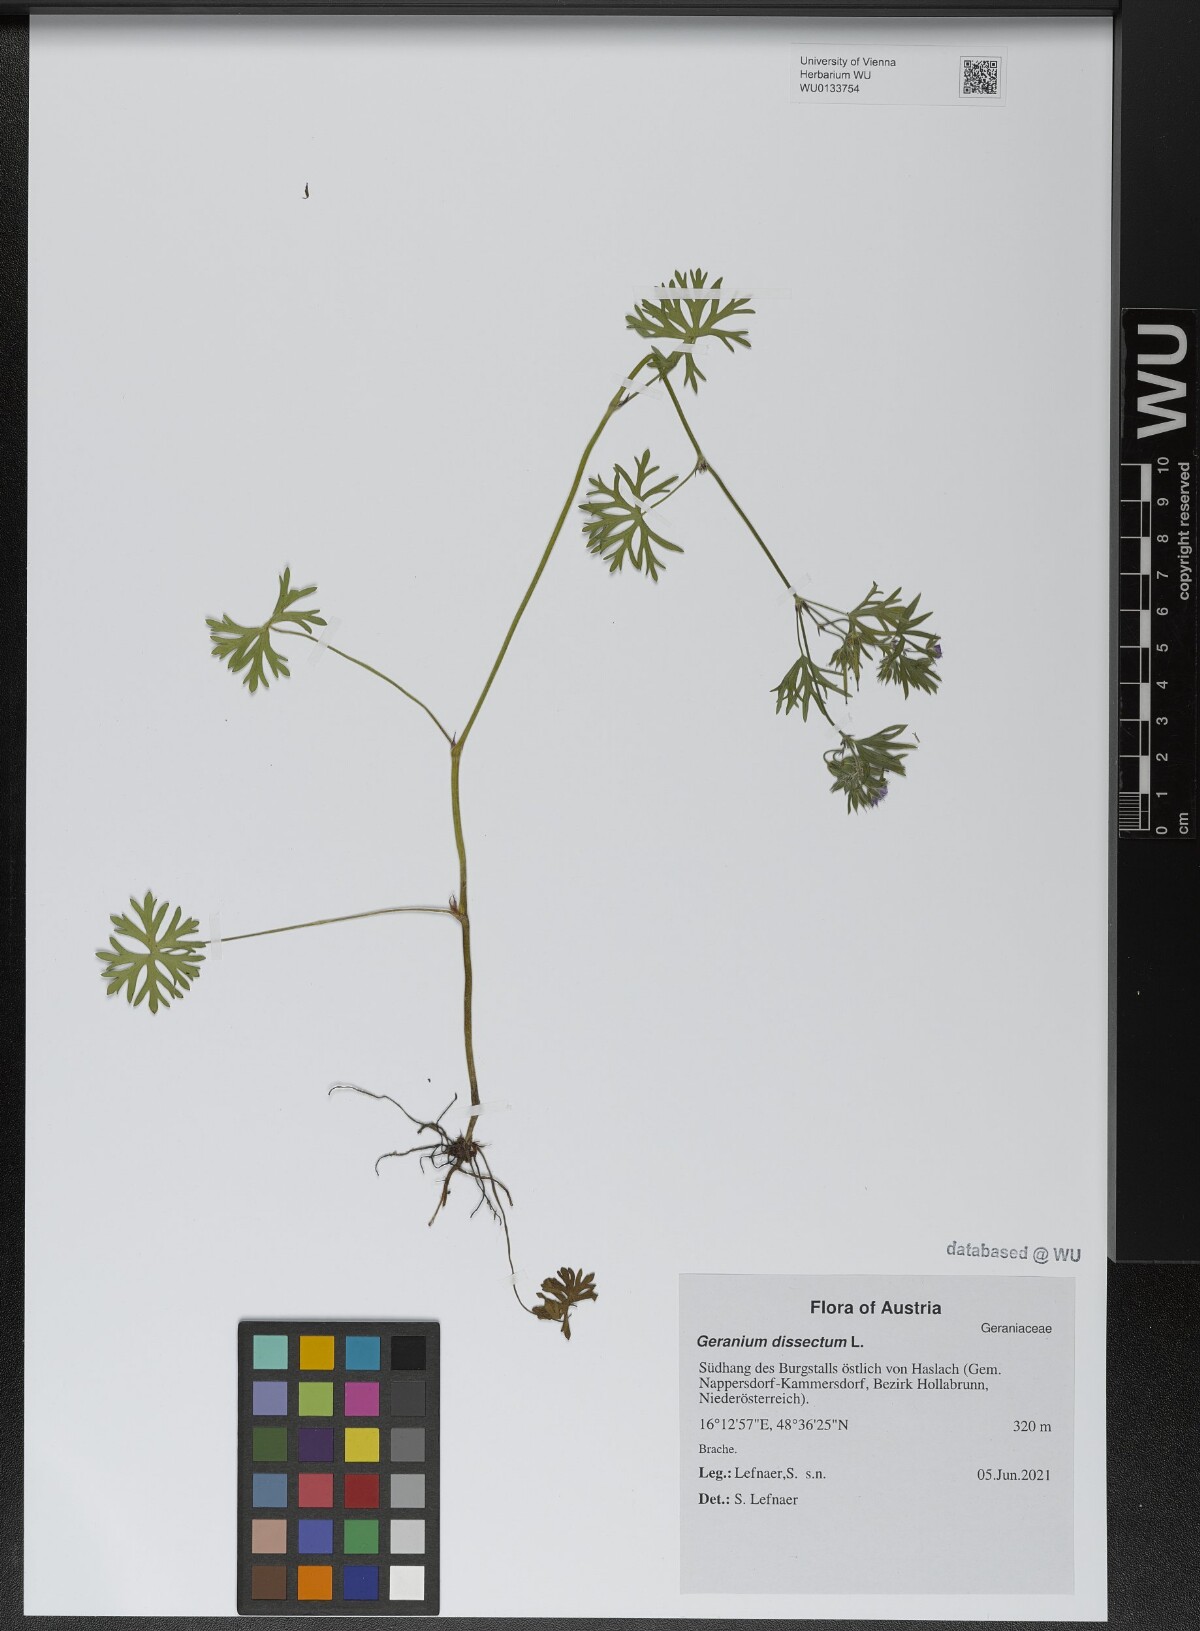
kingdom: Plantae
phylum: Tracheophyta
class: Magnoliopsida
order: Geraniales
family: Geraniaceae
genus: Geranium
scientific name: Geranium dissectum
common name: Cut-leaved crane's-bill
